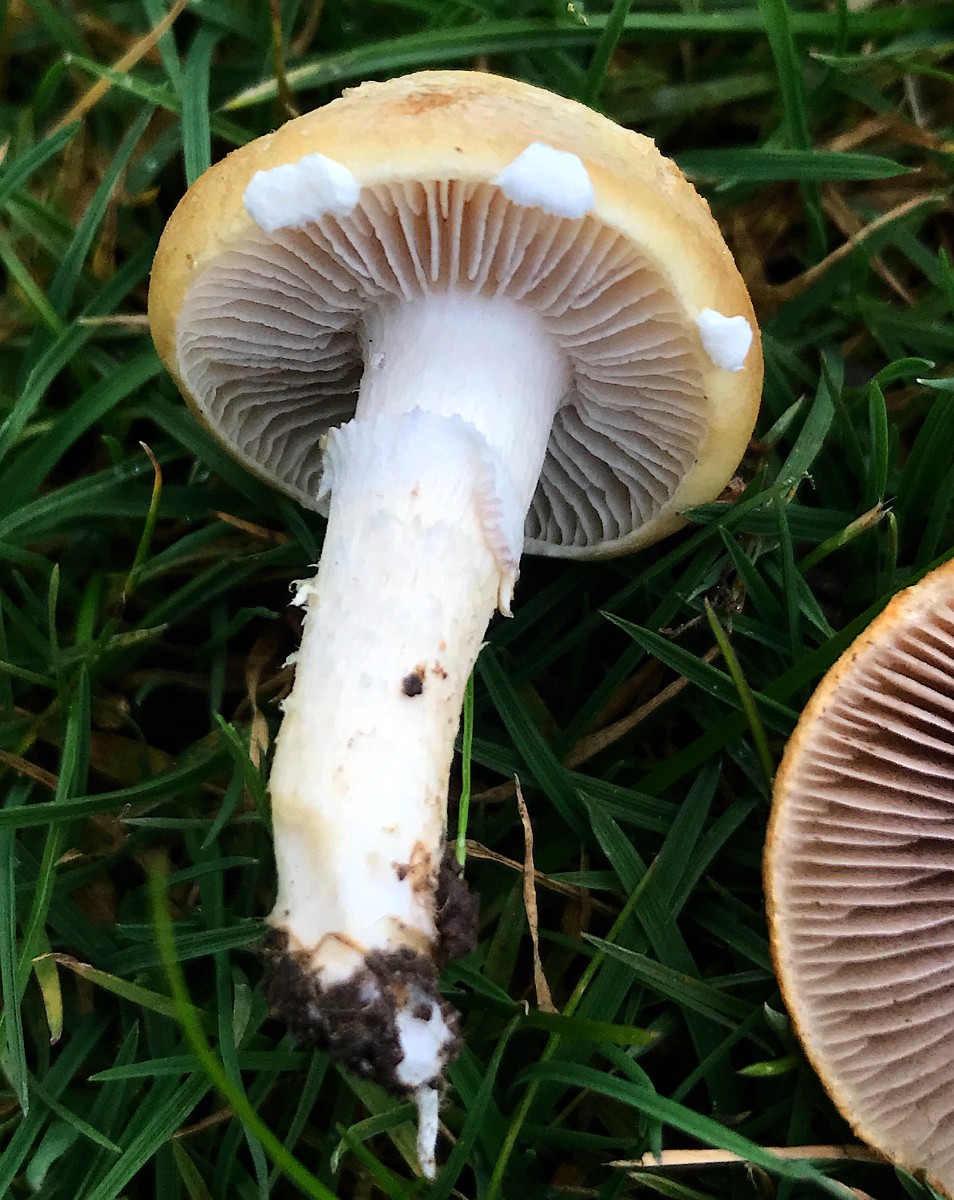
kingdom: Fungi
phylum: Basidiomycota
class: Agaricomycetes
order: Agaricales
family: Hymenogastraceae
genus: Psilocybe
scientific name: Psilocybe coronilla
